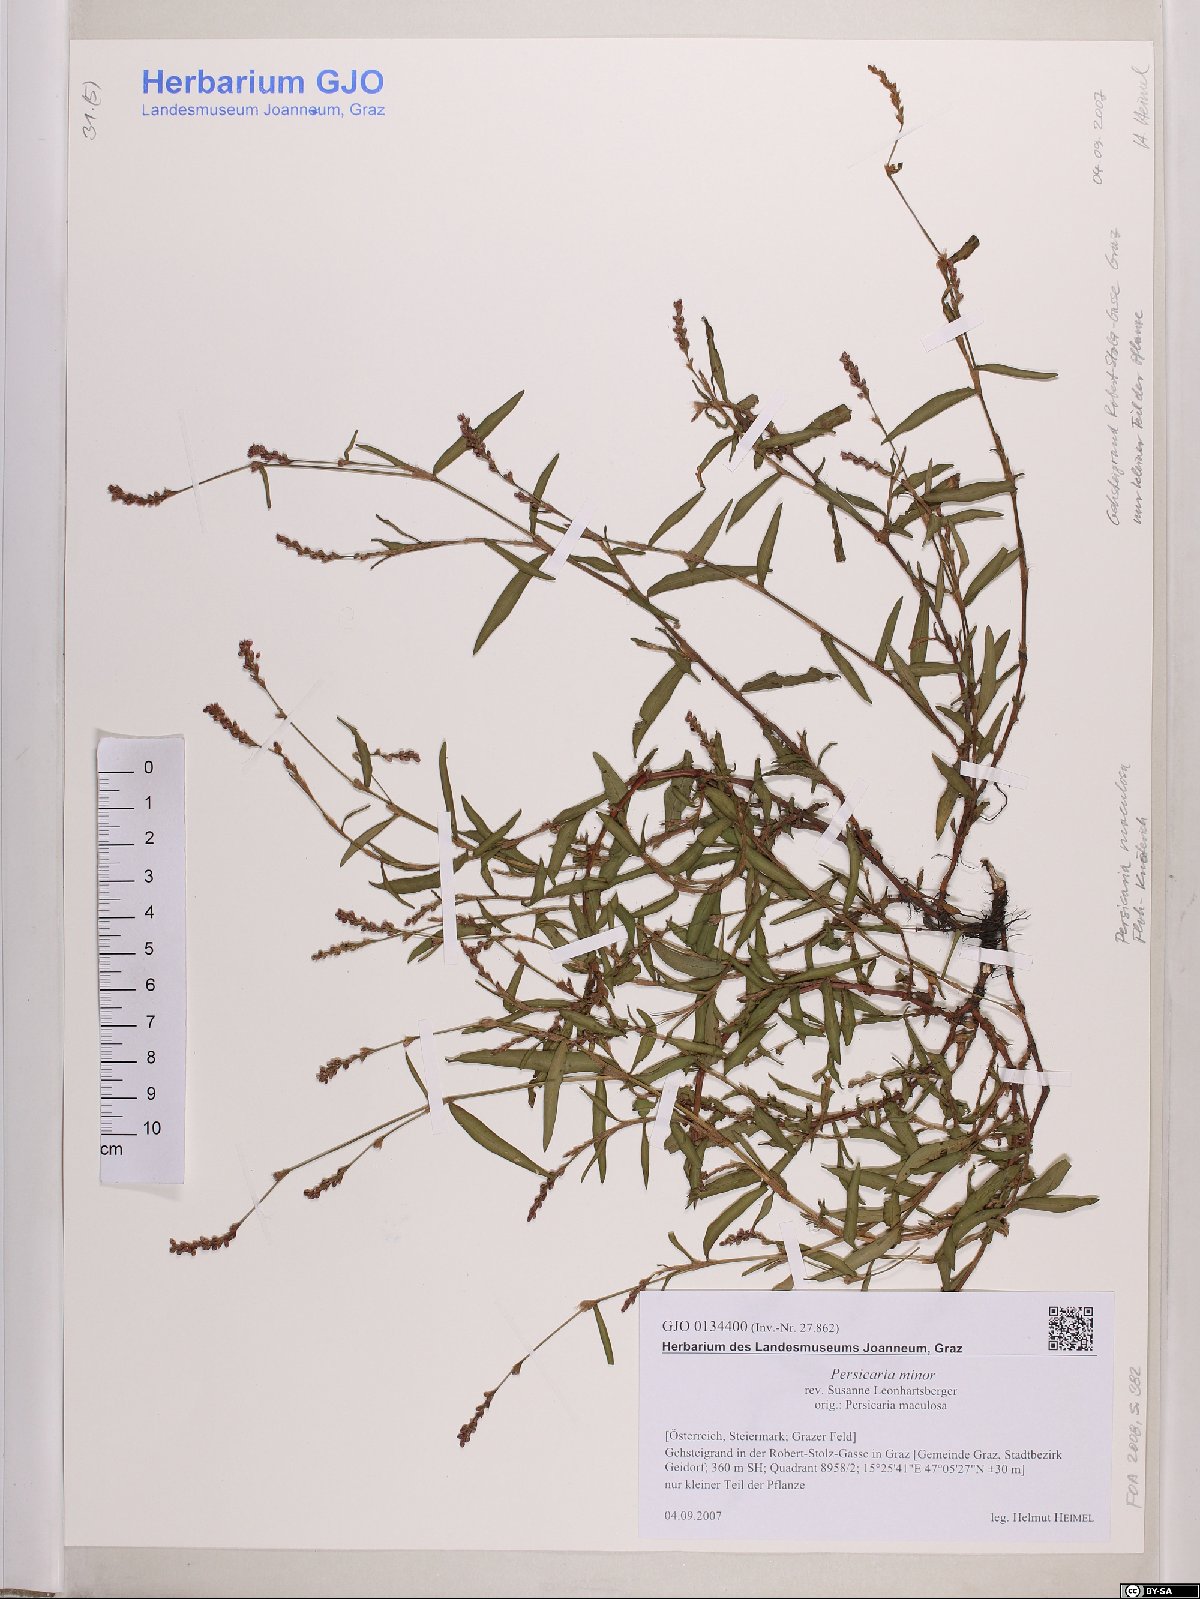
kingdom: Plantae
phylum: Tracheophyta
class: Magnoliopsida
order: Caryophyllales
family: Polygonaceae
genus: Persicaria
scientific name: Persicaria minor
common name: Small water-pepper
